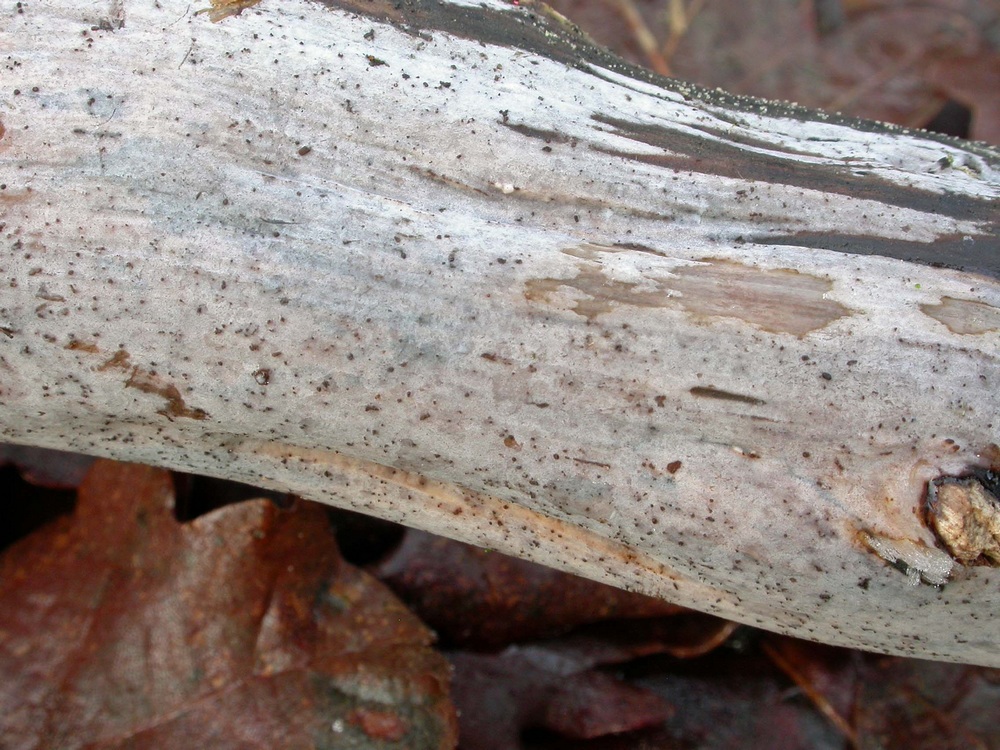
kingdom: Fungi
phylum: Basidiomycota
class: Tremellomycetes
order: Tremellales
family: Exidiaceae
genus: Exidiopsis
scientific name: Exidiopsis effusa
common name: smuk bævrehinde
